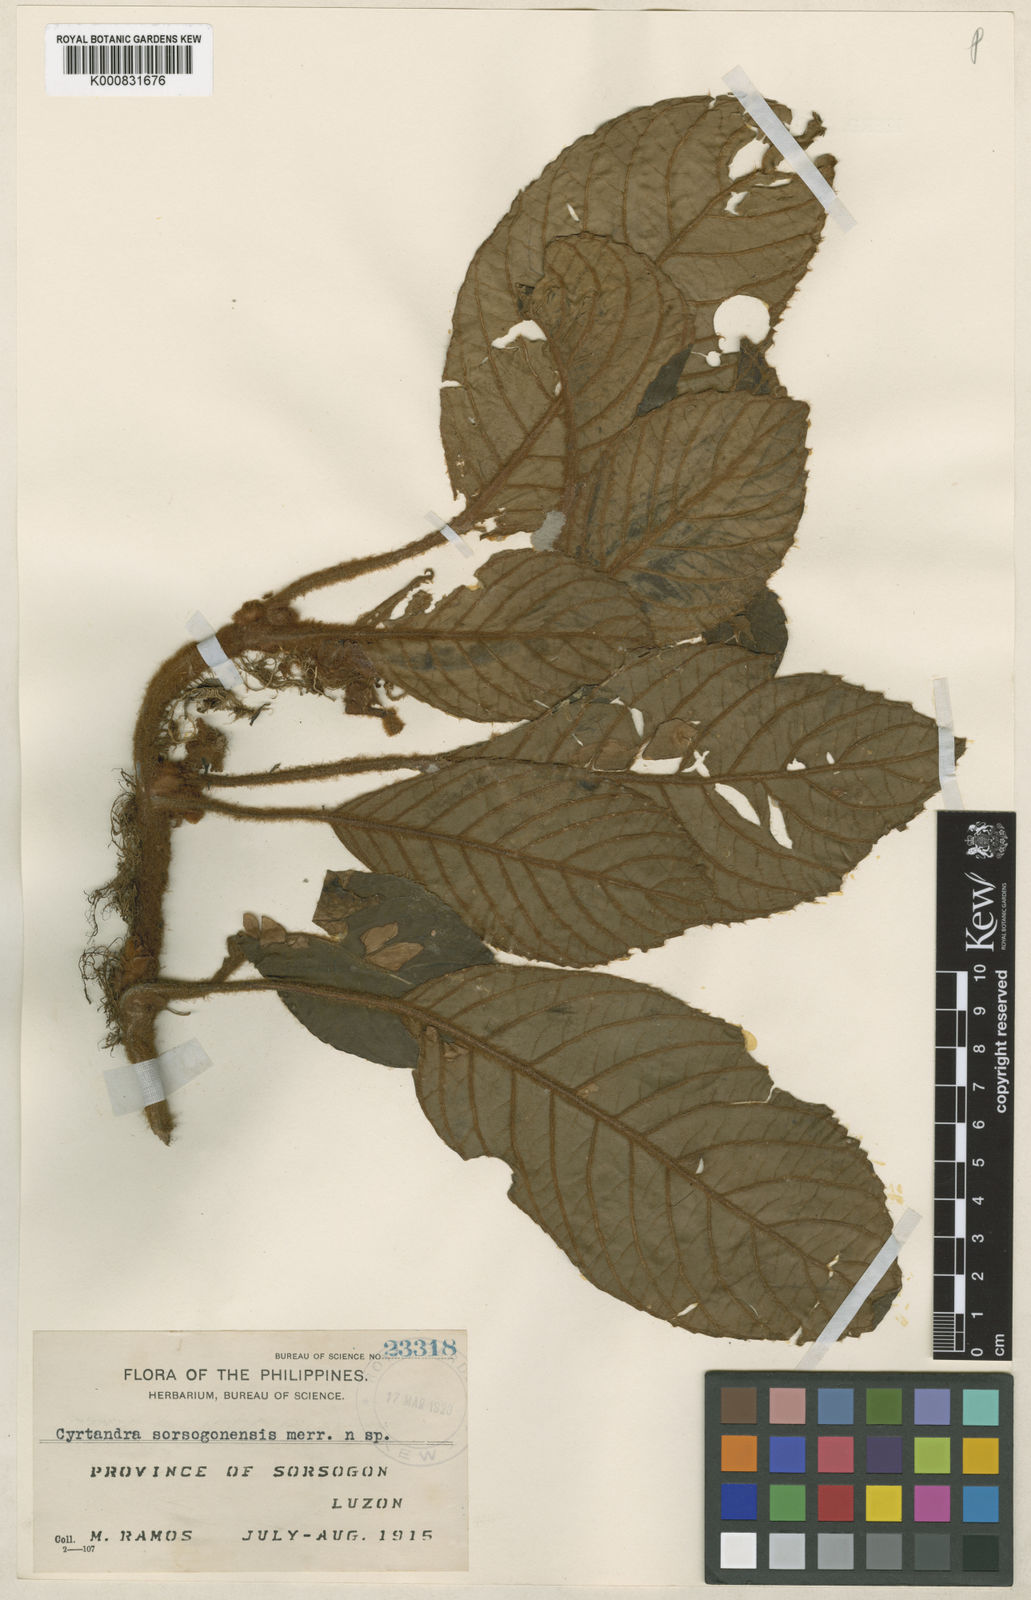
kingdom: Plantae
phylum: Tracheophyta
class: Magnoliopsida
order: Lamiales
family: Gesneriaceae
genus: Cyrtandra
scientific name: Cyrtandra sorsogonensis
